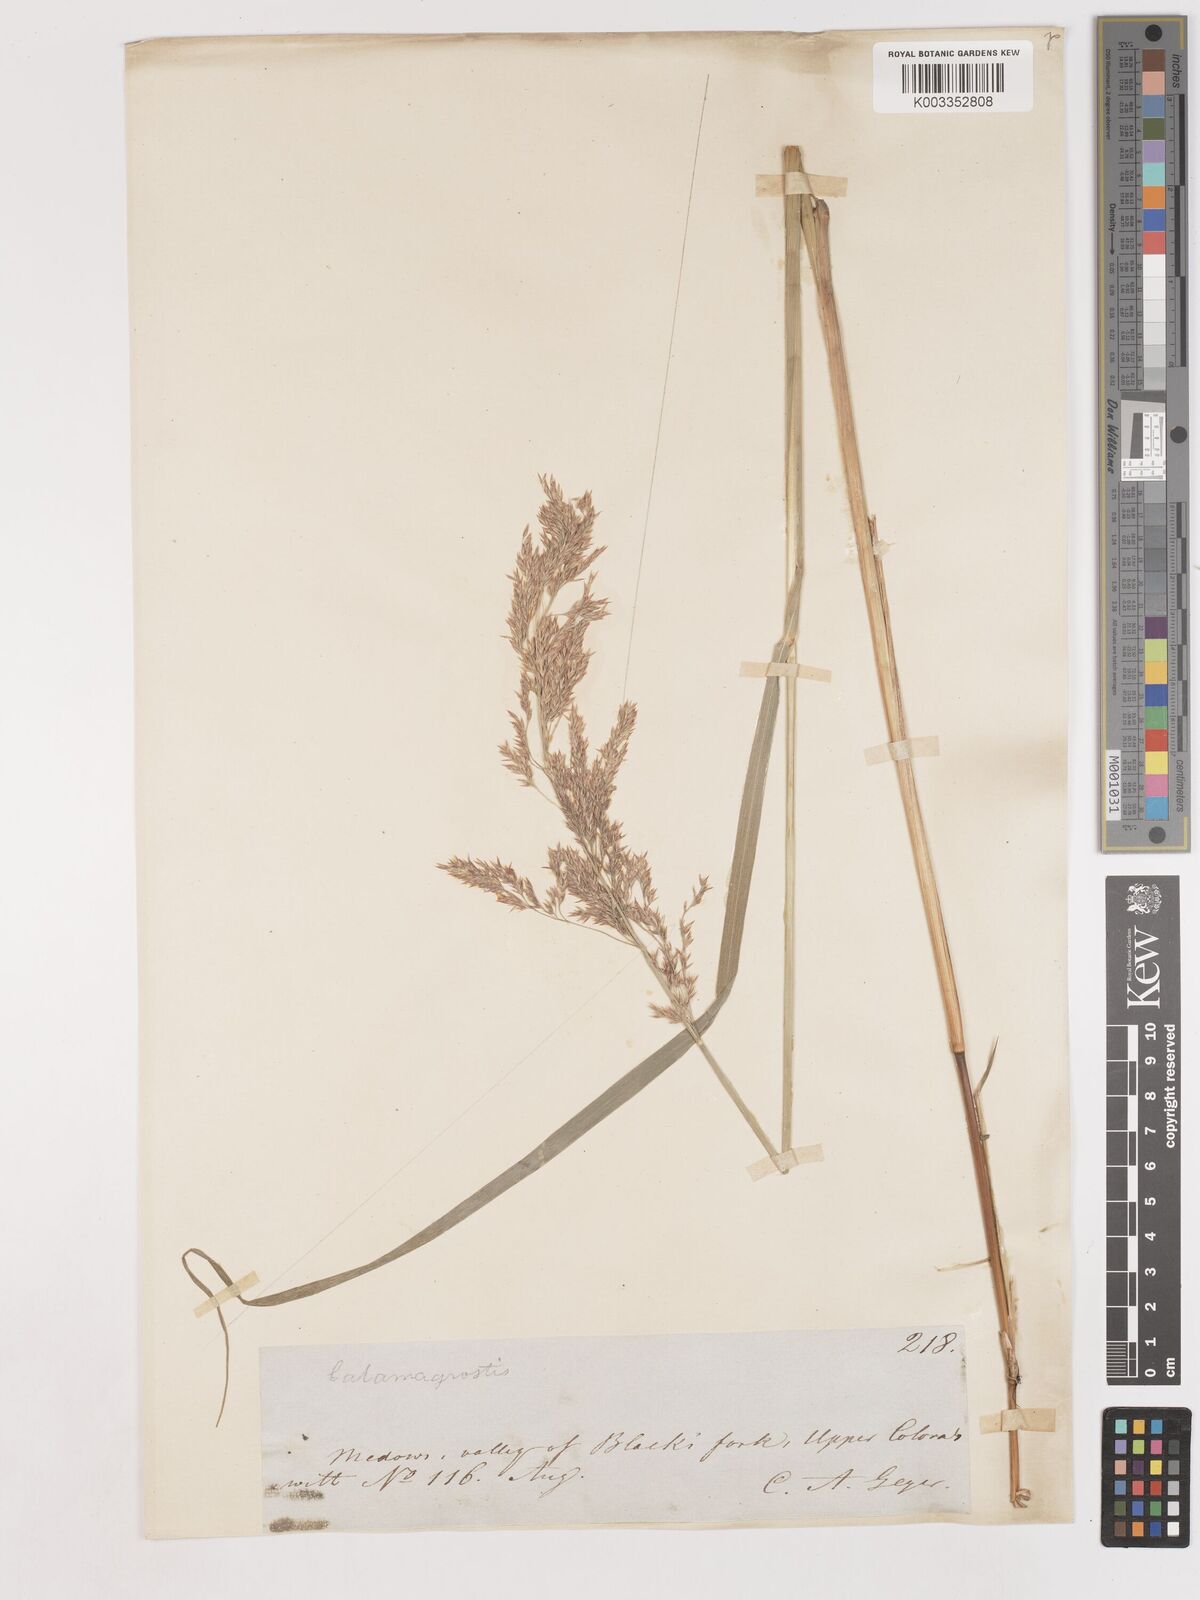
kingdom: Plantae
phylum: Tracheophyta
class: Liliopsida
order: Poales
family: Poaceae
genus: Calamagrostis
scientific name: Calamagrostis canadensis
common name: Canada bluejoint
